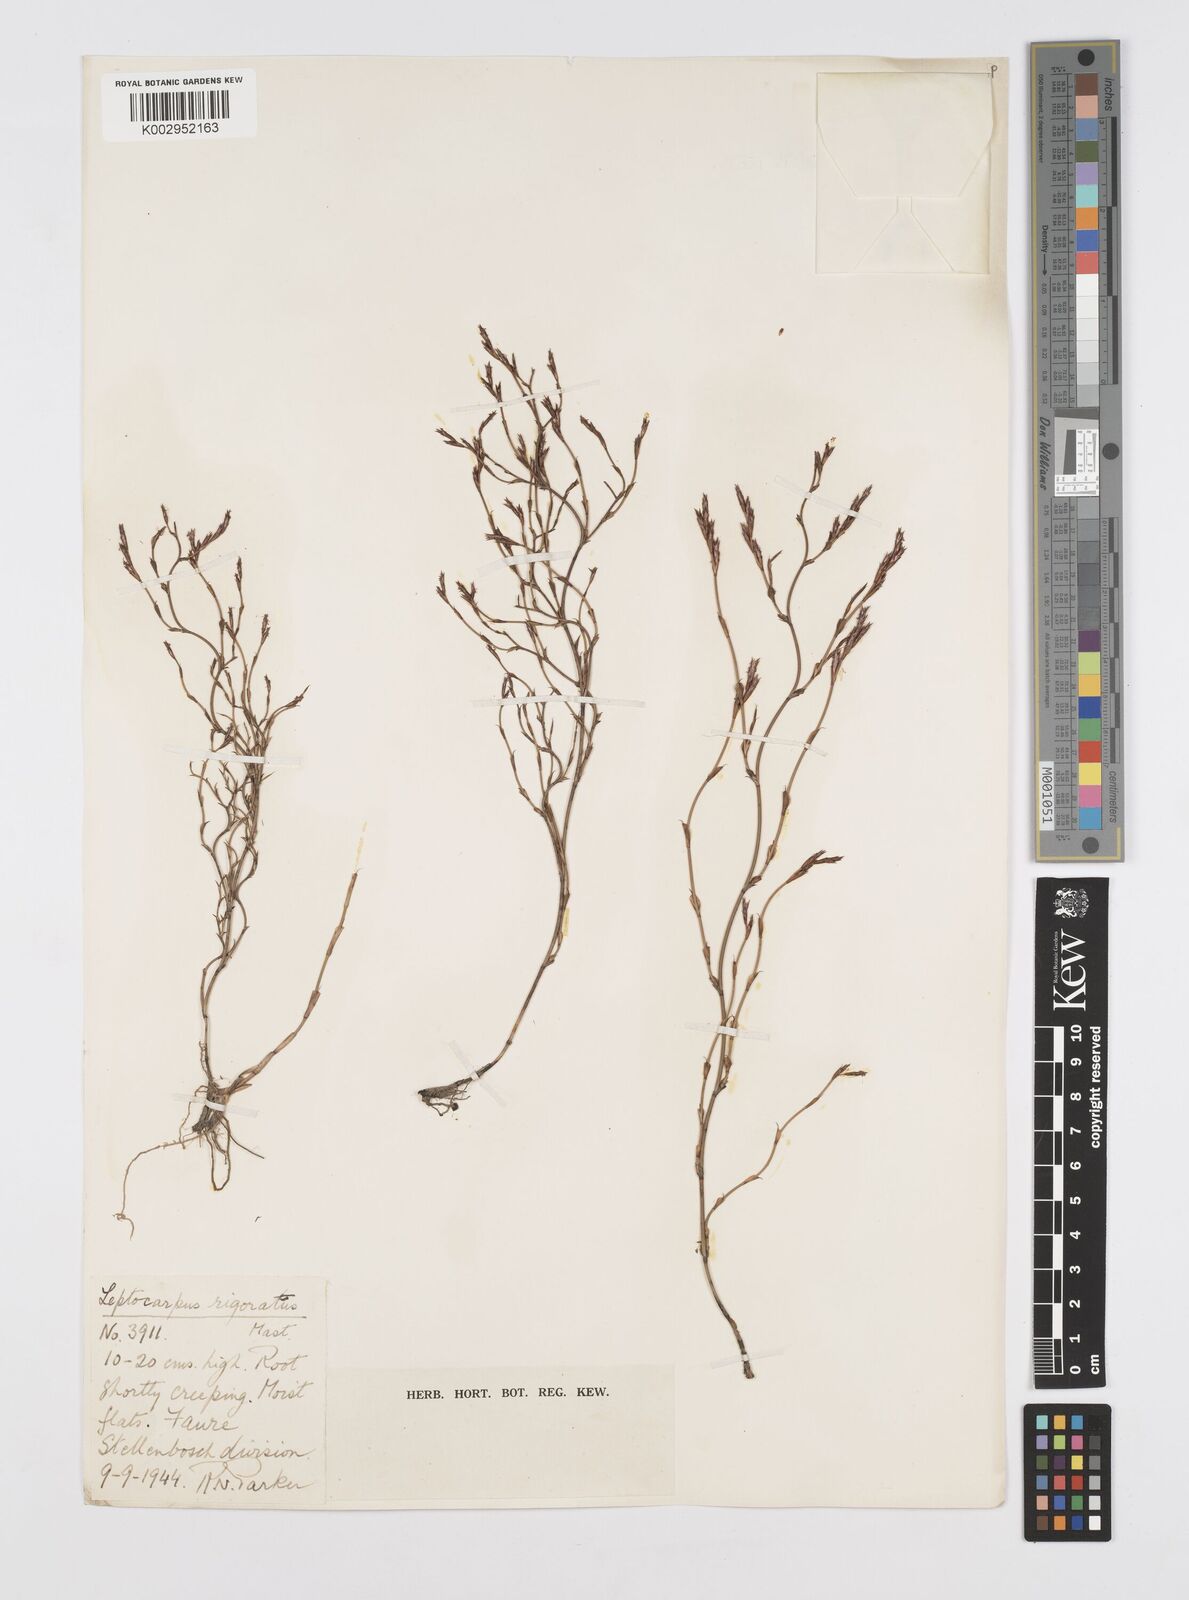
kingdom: Plantae
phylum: Tracheophyta
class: Liliopsida
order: Poales
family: Restionaceae
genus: Restio
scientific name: Restio rigoratus
